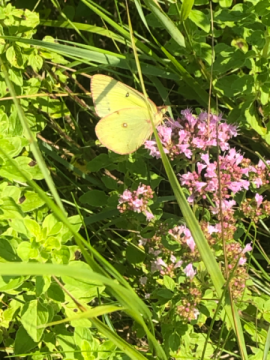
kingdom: Animalia
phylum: Arthropoda
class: Insecta
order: Lepidoptera
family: Pieridae
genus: Colias
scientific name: Colias philodice
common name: Clouded Sulphur
